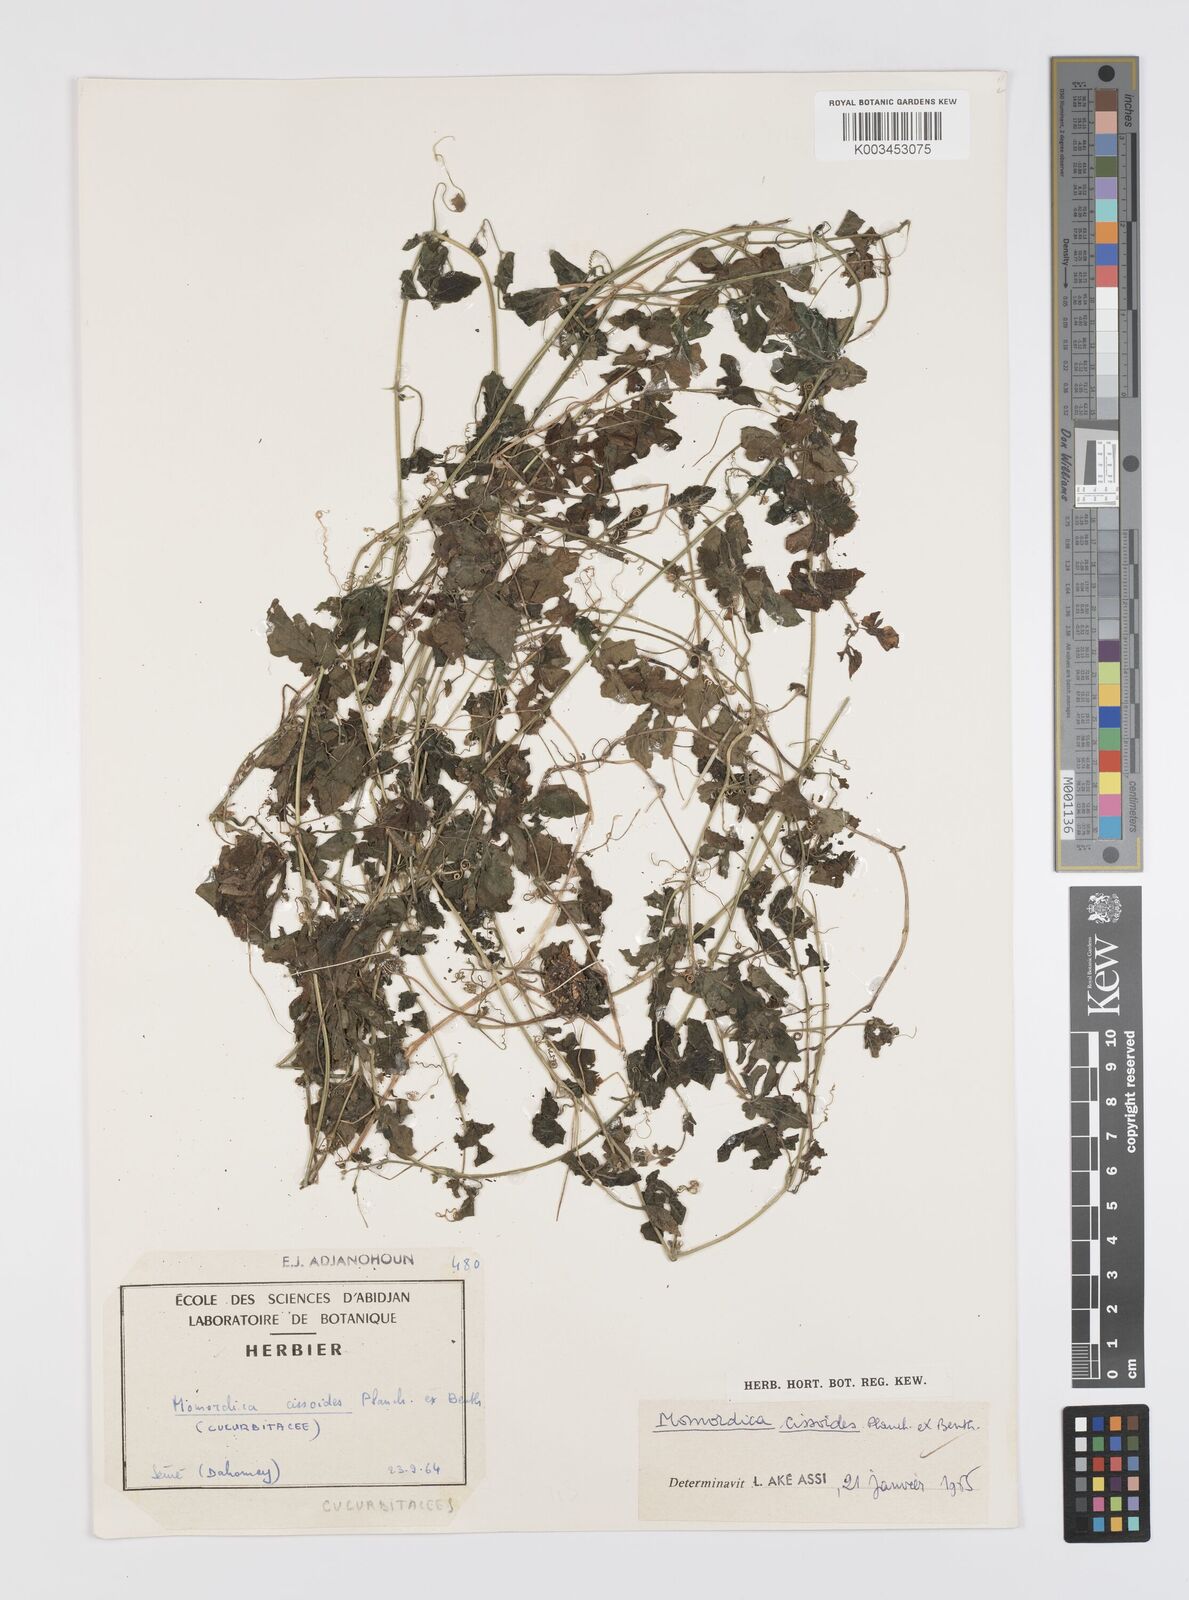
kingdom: Plantae
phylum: Tracheophyta
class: Magnoliopsida
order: Cucurbitales
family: Cucurbitaceae
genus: Momordica
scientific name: Momordica cissoides
